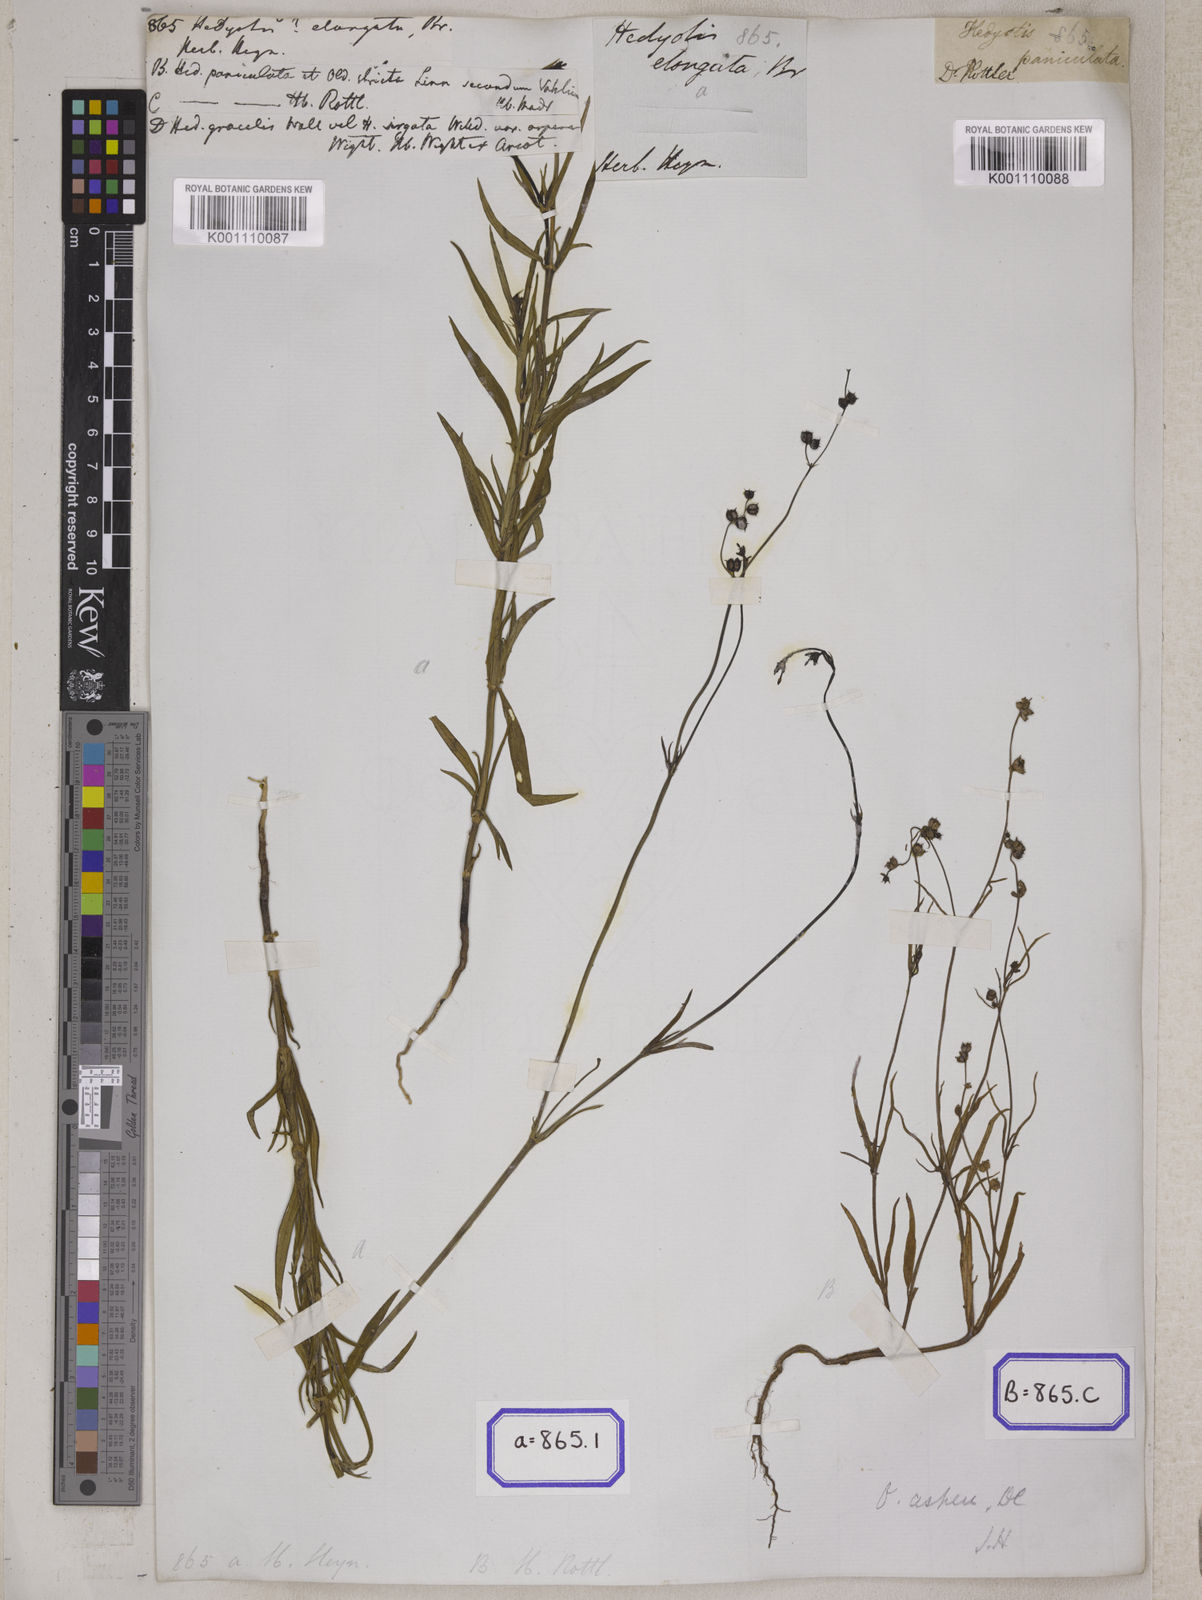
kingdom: Plantae
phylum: Tracheophyta
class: Magnoliopsida
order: Gentianales
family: Rubiaceae
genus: Hedyotis
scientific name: Hedyotis
